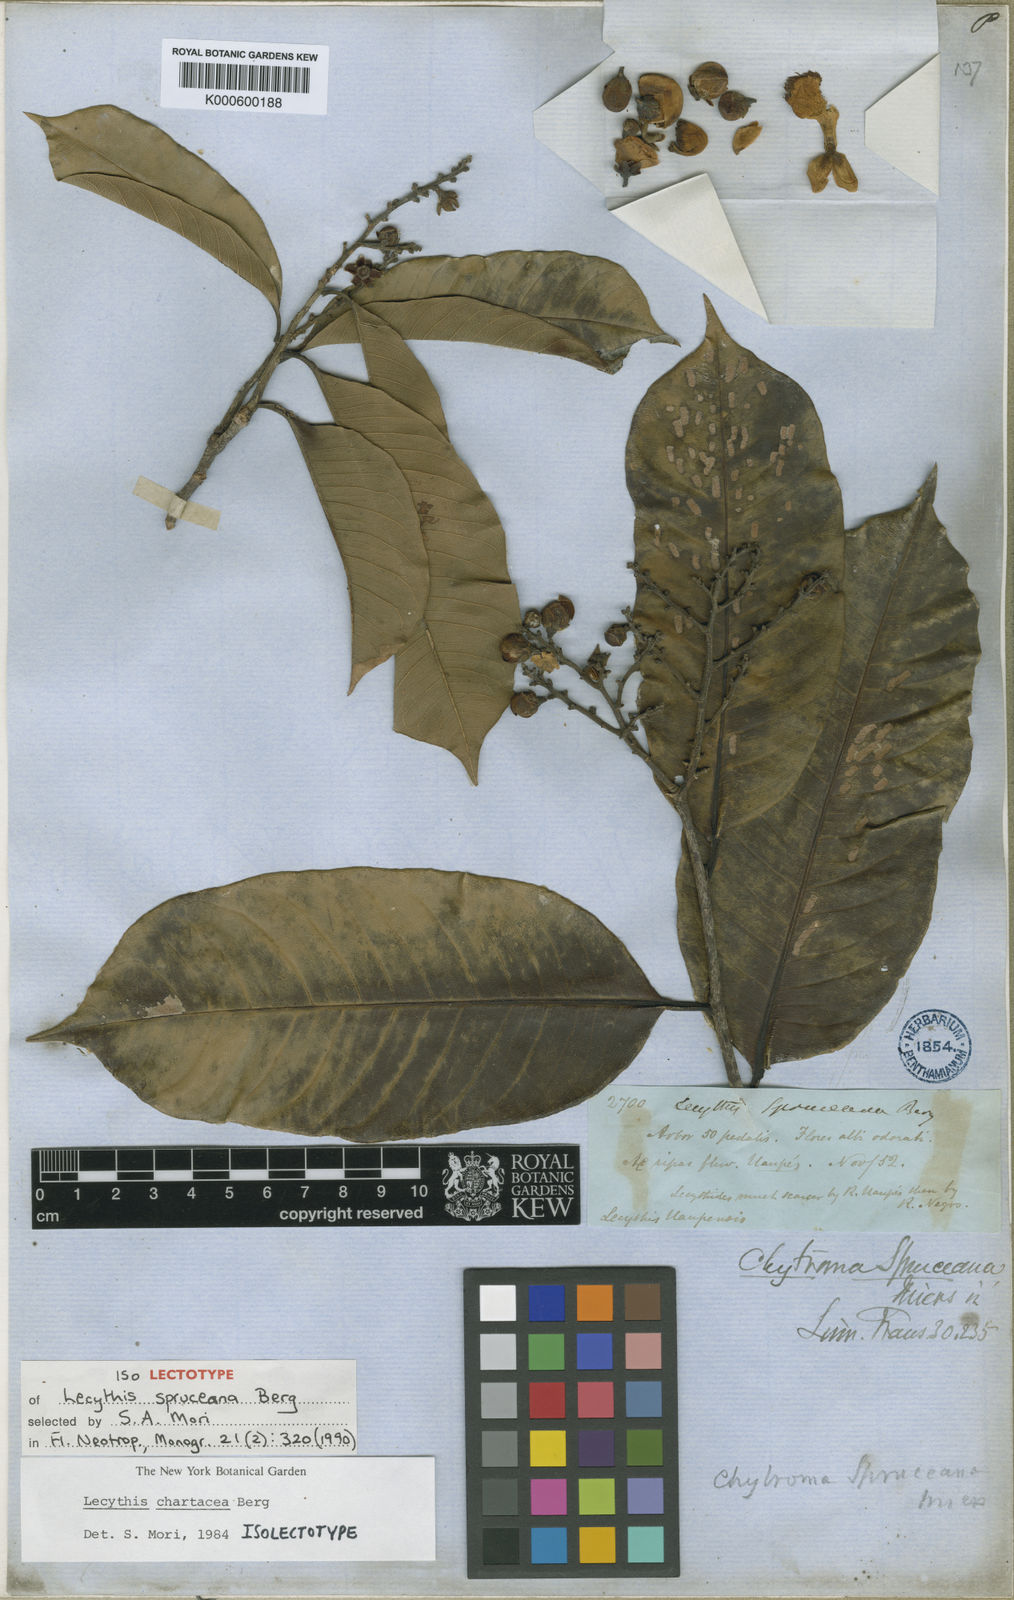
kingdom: Plantae
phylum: Tracheophyta
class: Magnoliopsida
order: Ericales
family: Lecythidaceae
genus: Lecythis
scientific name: Lecythis chartacea
